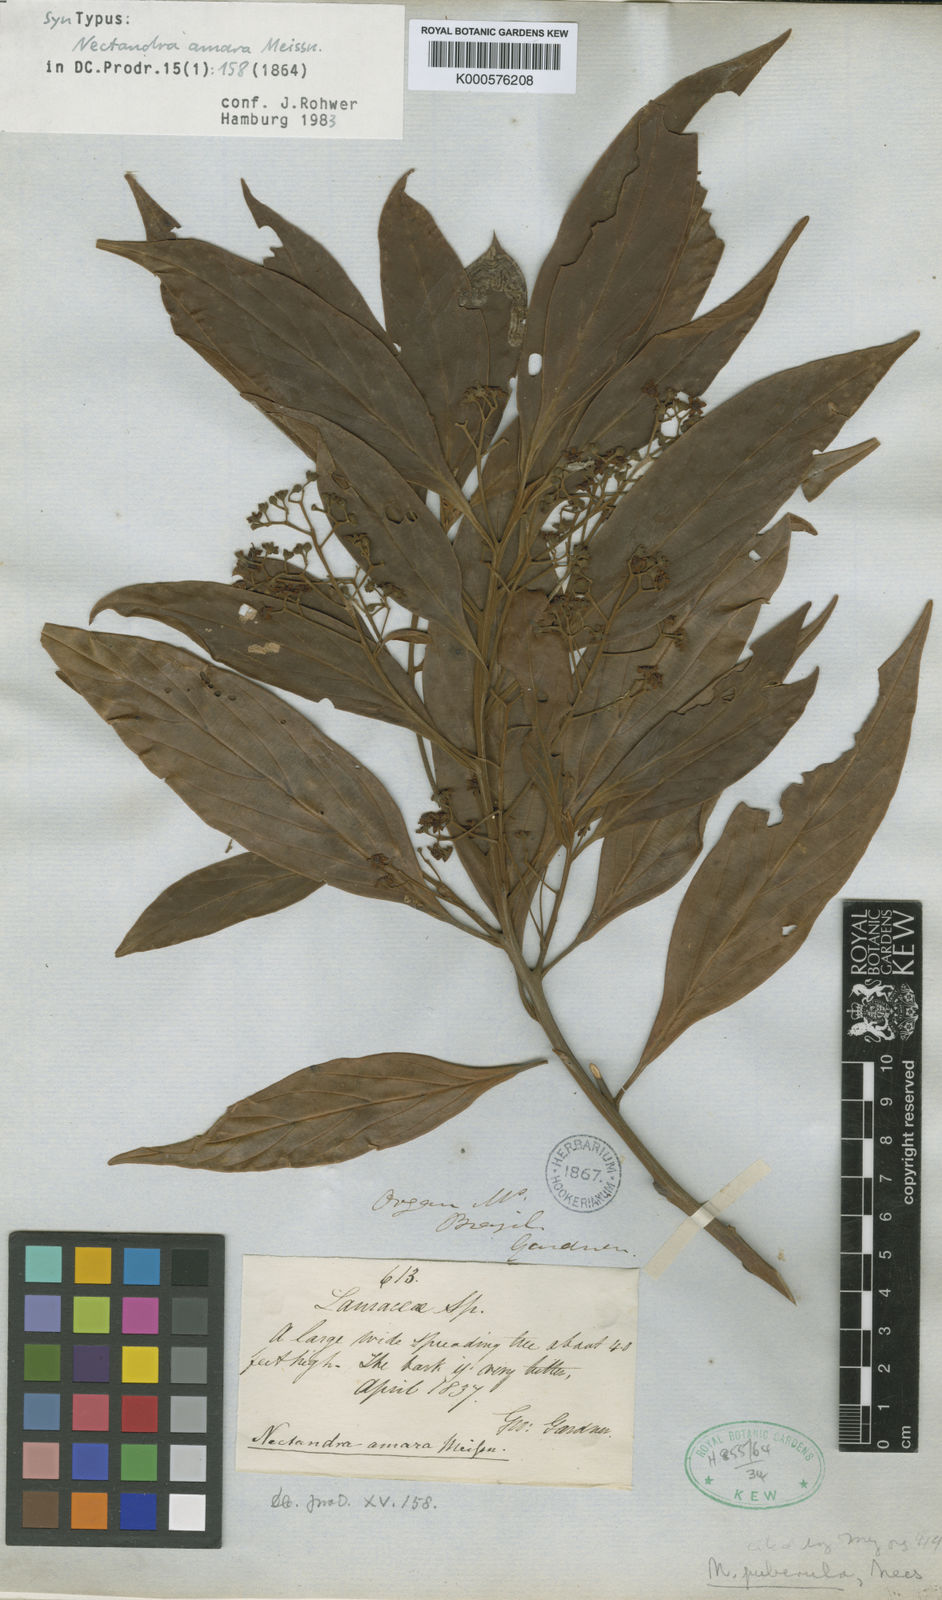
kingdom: Plantae
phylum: Tracheophyta
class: Magnoliopsida
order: Laurales
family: Lauraceae
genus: Nectandra
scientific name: Nectandra puberula
